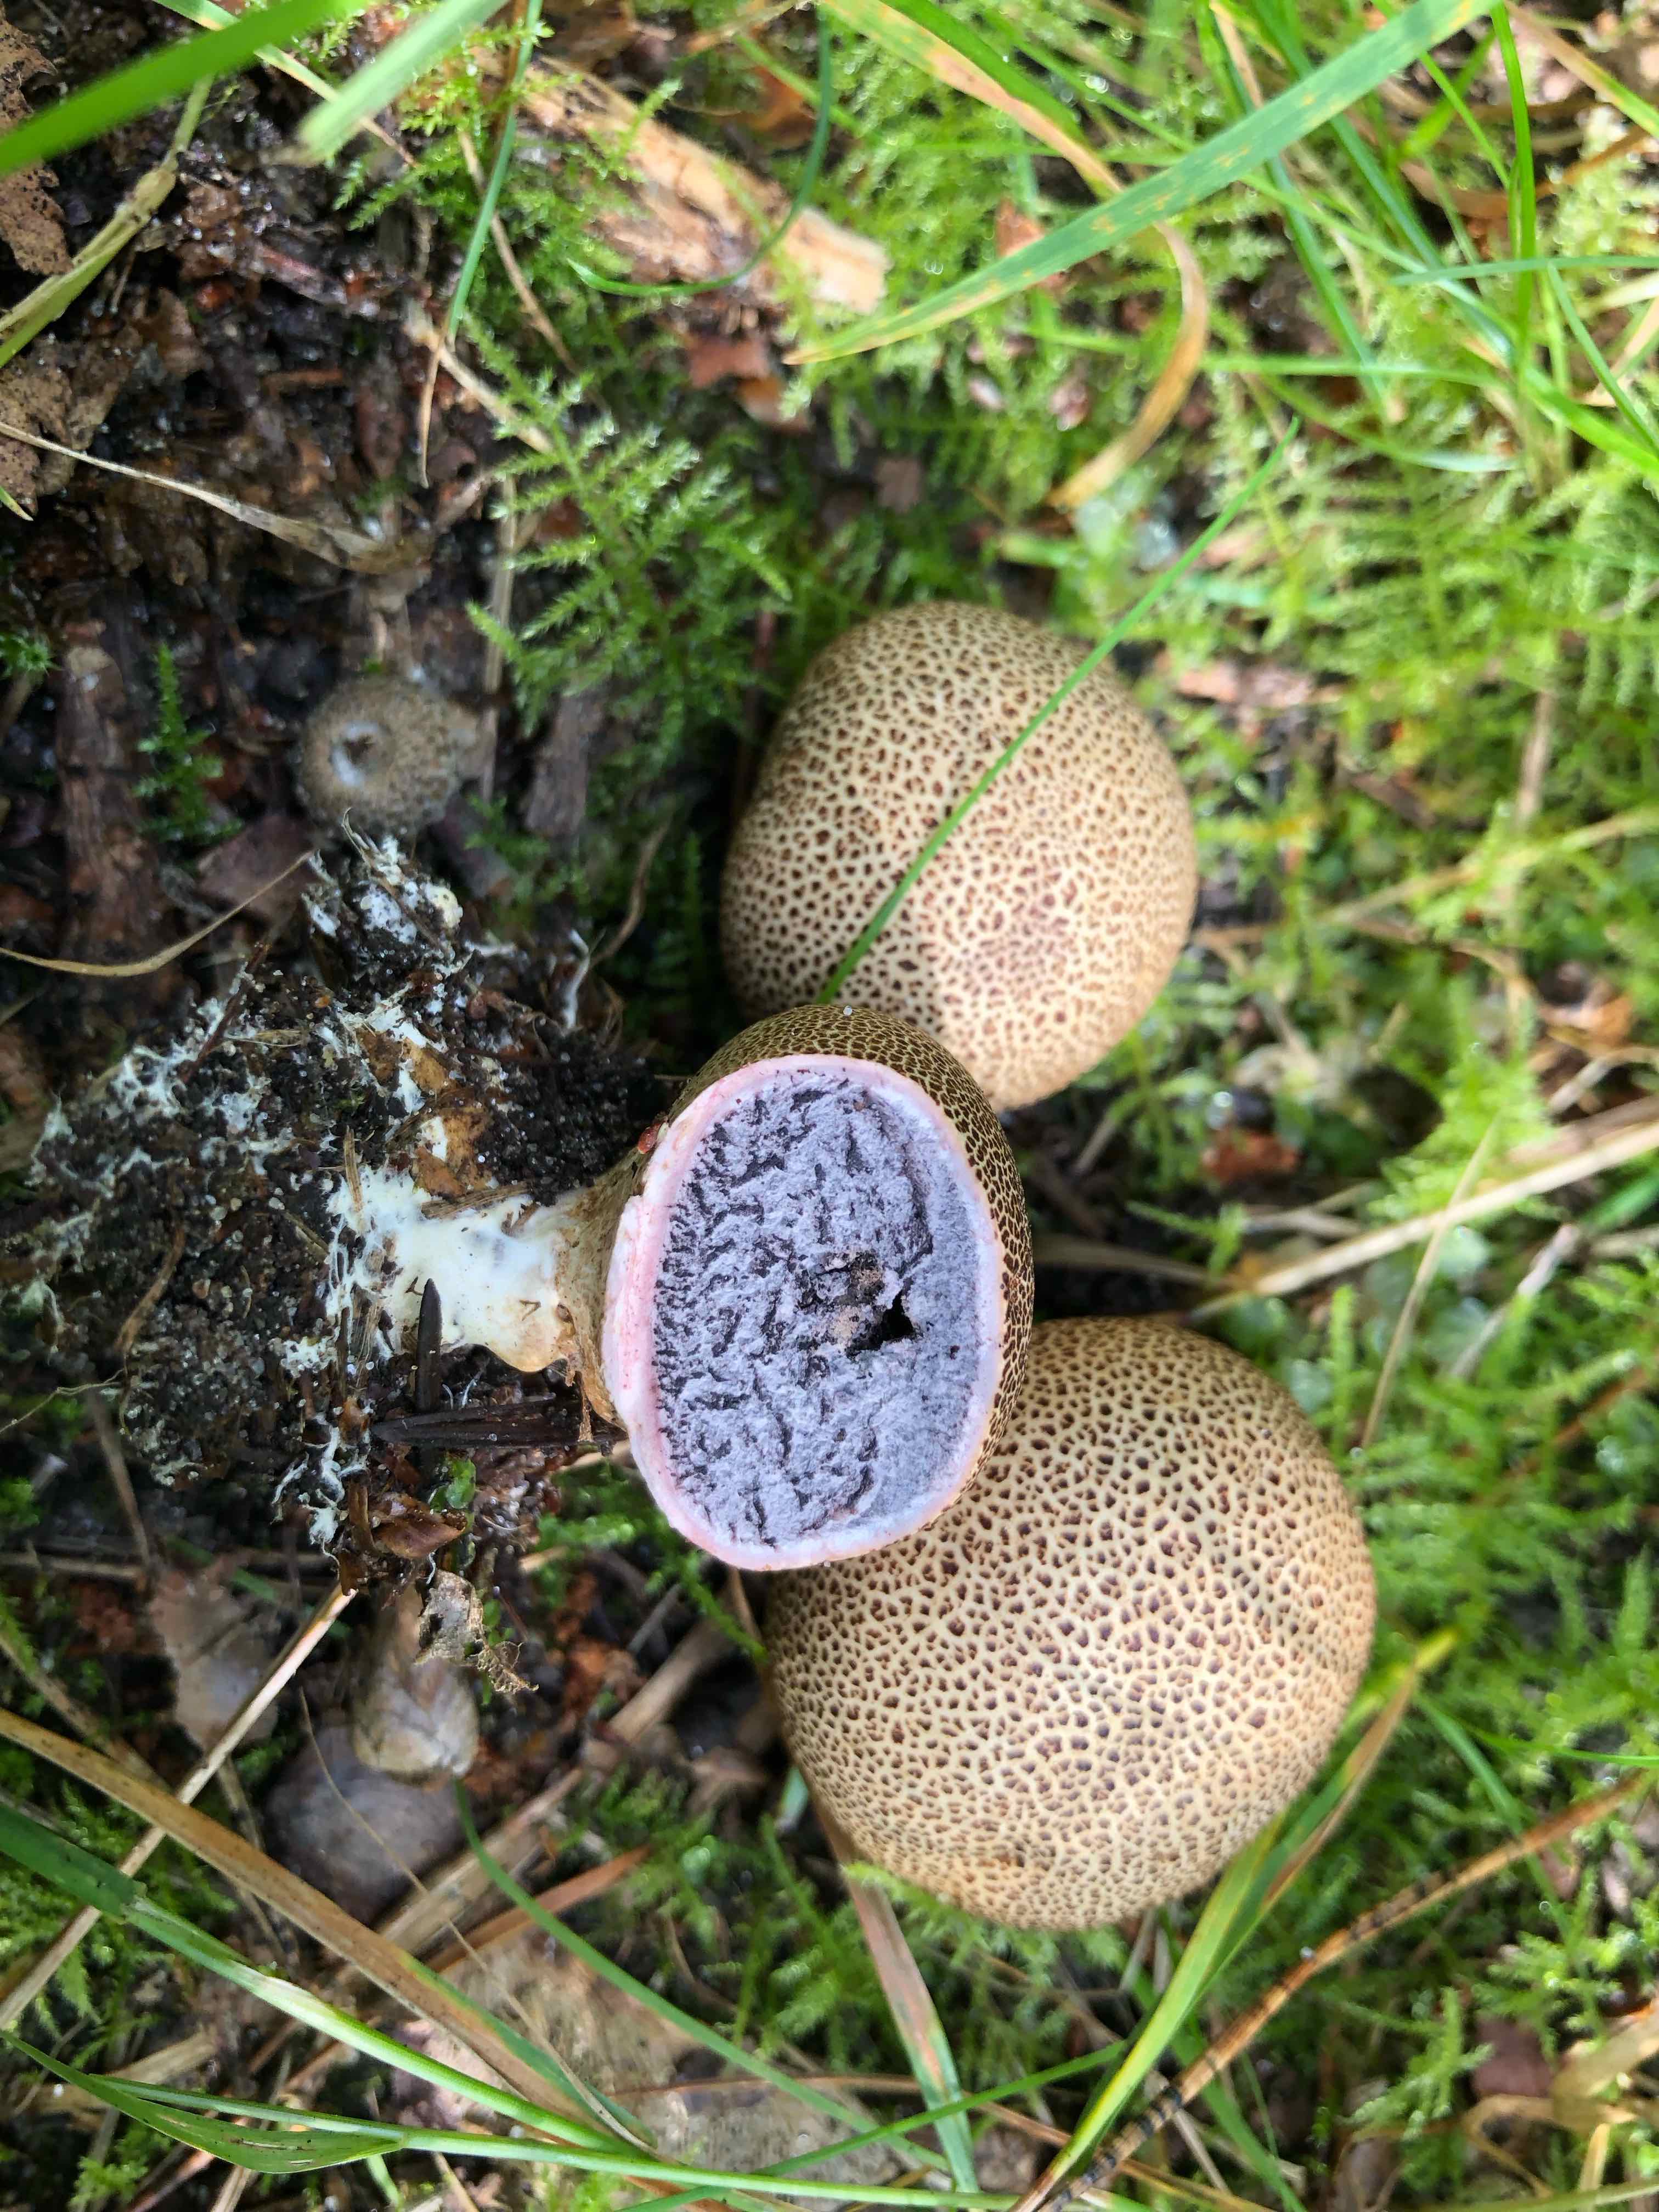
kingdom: Fungi
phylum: Basidiomycota
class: Agaricomycetes
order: Boletales
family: Sclerodermataceae
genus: Scleroderma
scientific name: Scleroderma verrucosum
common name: stilket bruskbold
